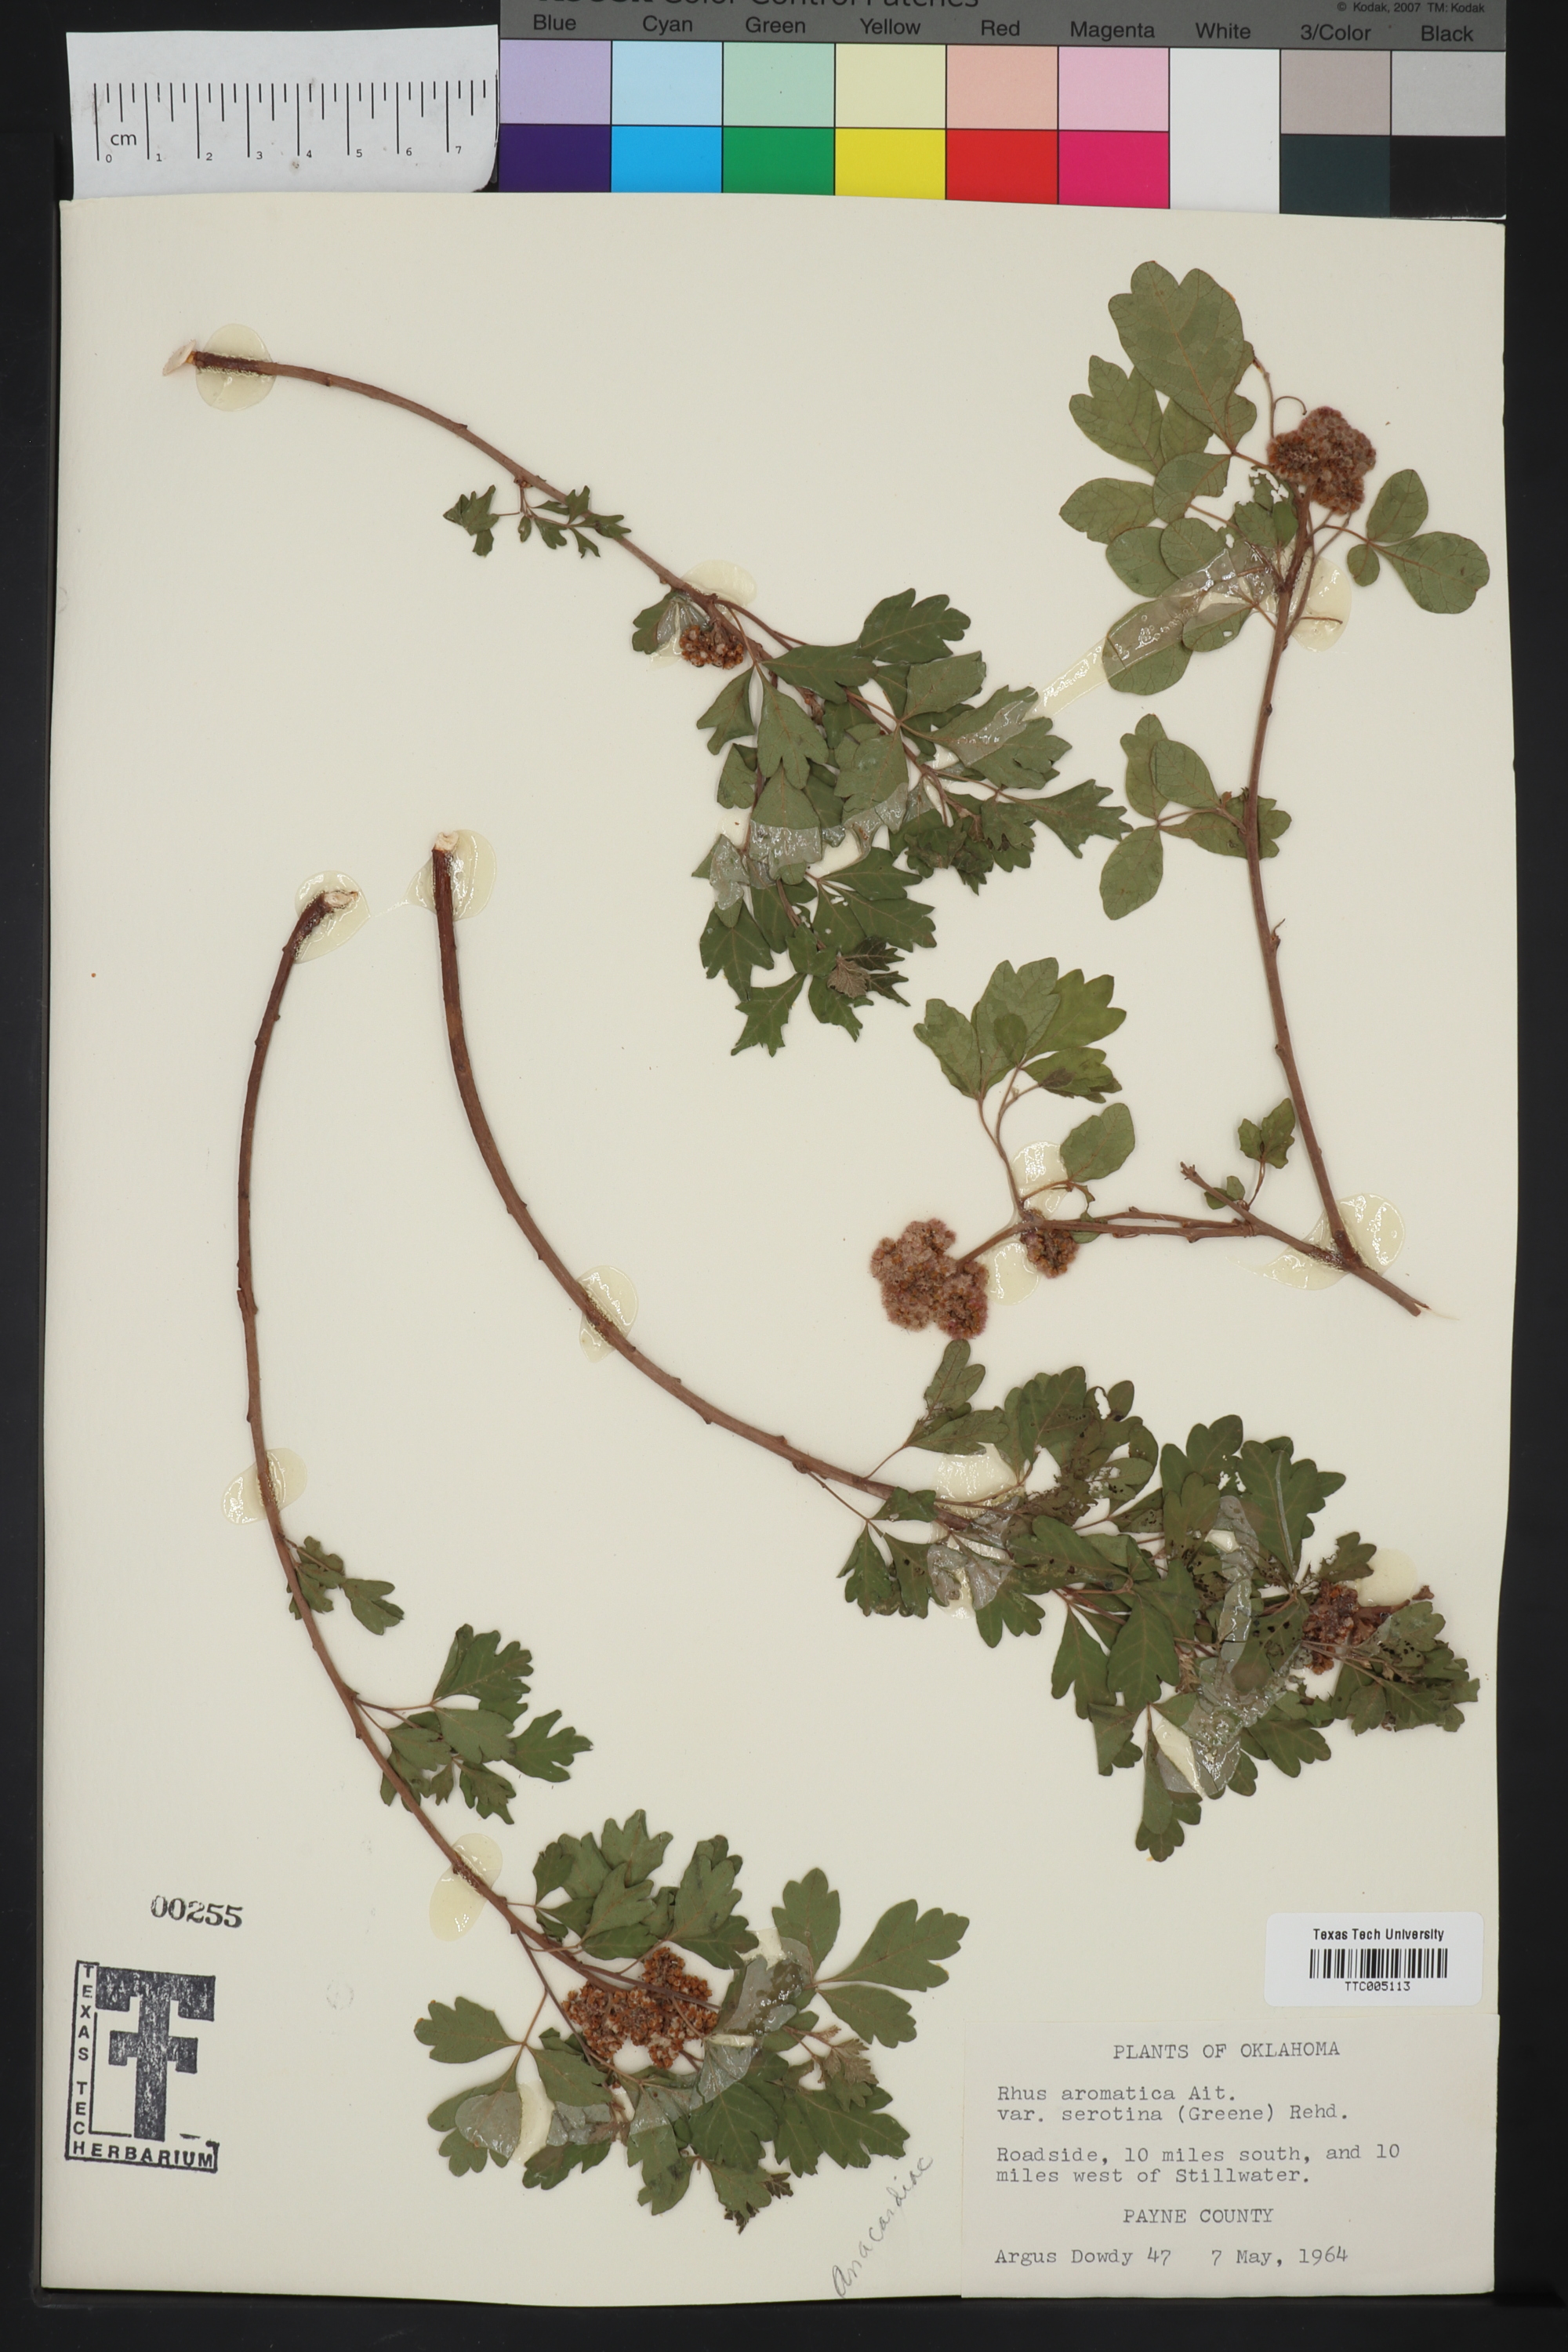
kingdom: Plantae
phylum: Tracheophyta
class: Magnoliopsida
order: Sapindales
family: Anacardiaceae
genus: Rhus
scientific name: Rhus aromatica
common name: Aromatic sumac
